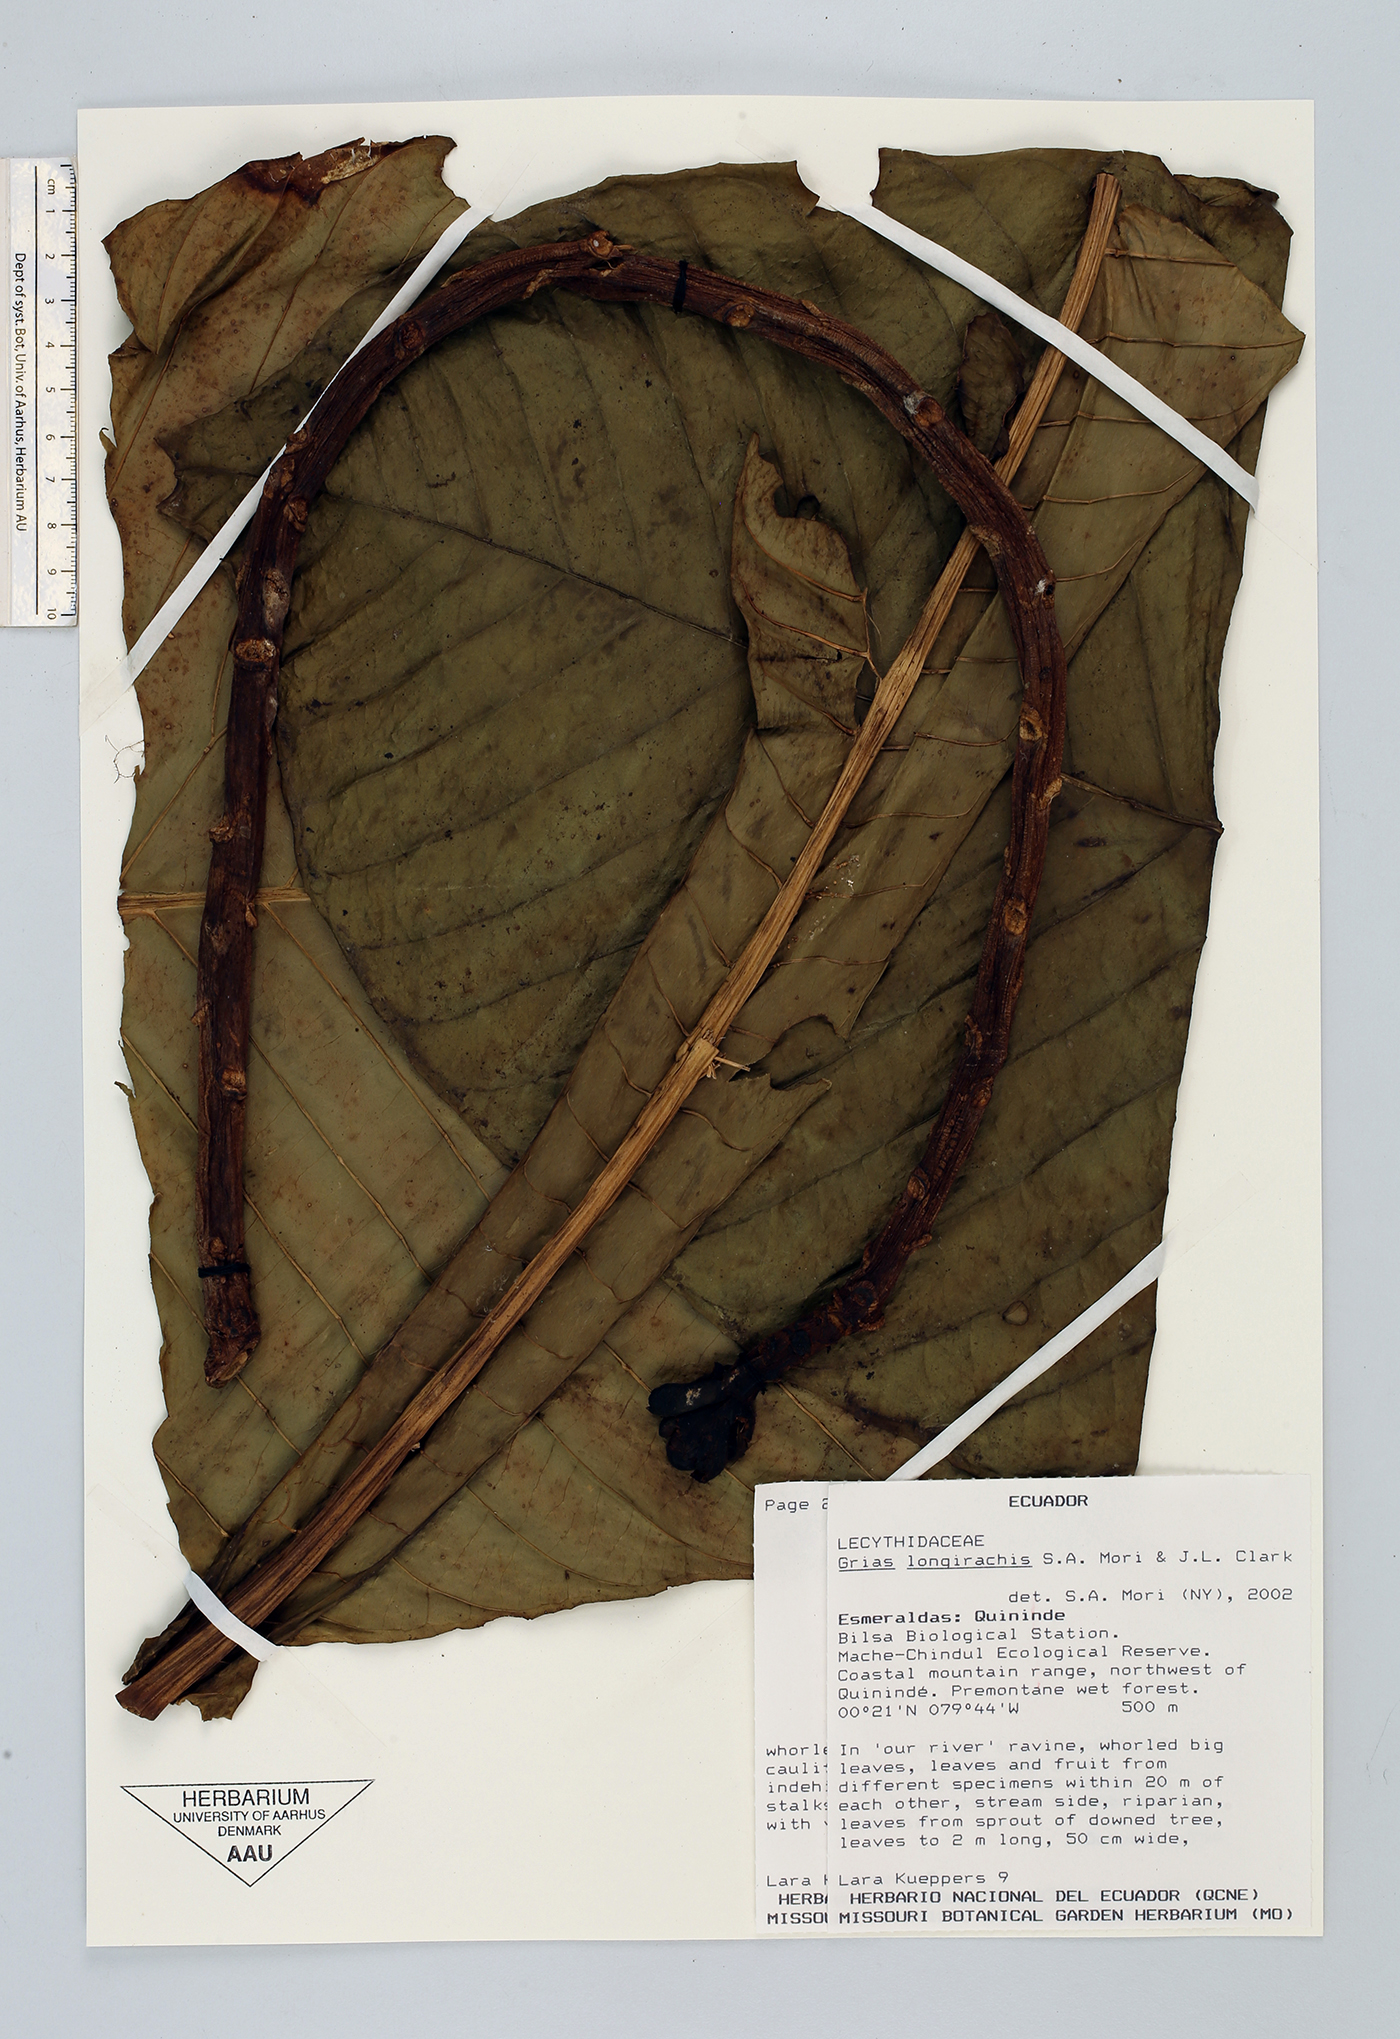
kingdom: Plantae
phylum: Tracheophyta
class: Magnoliopsida
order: Ericales
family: Lecythidaceae
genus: Grias
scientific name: Grias longirachis
